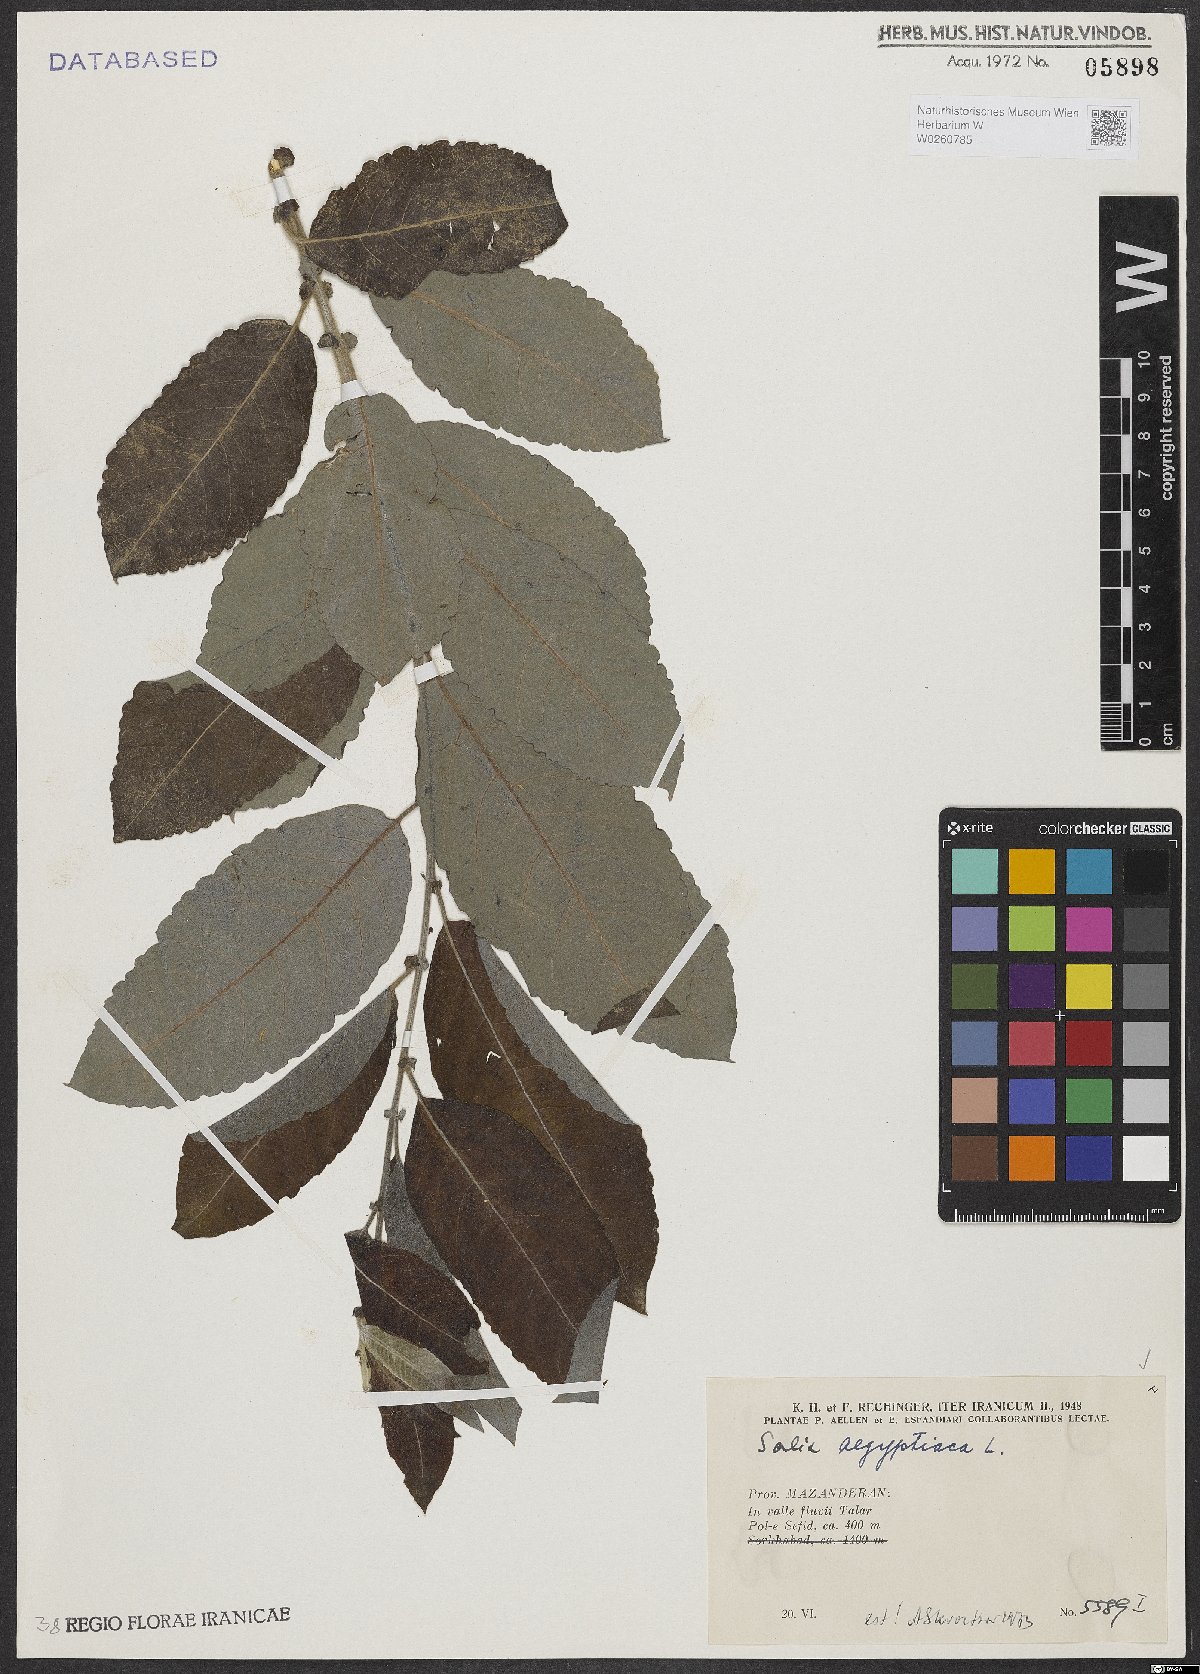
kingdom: Plantae
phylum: Tracheophyta
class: Magnoliopsida
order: Malpighiales
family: Salicaceae
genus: Salix
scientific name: Salix aegyptiaca
